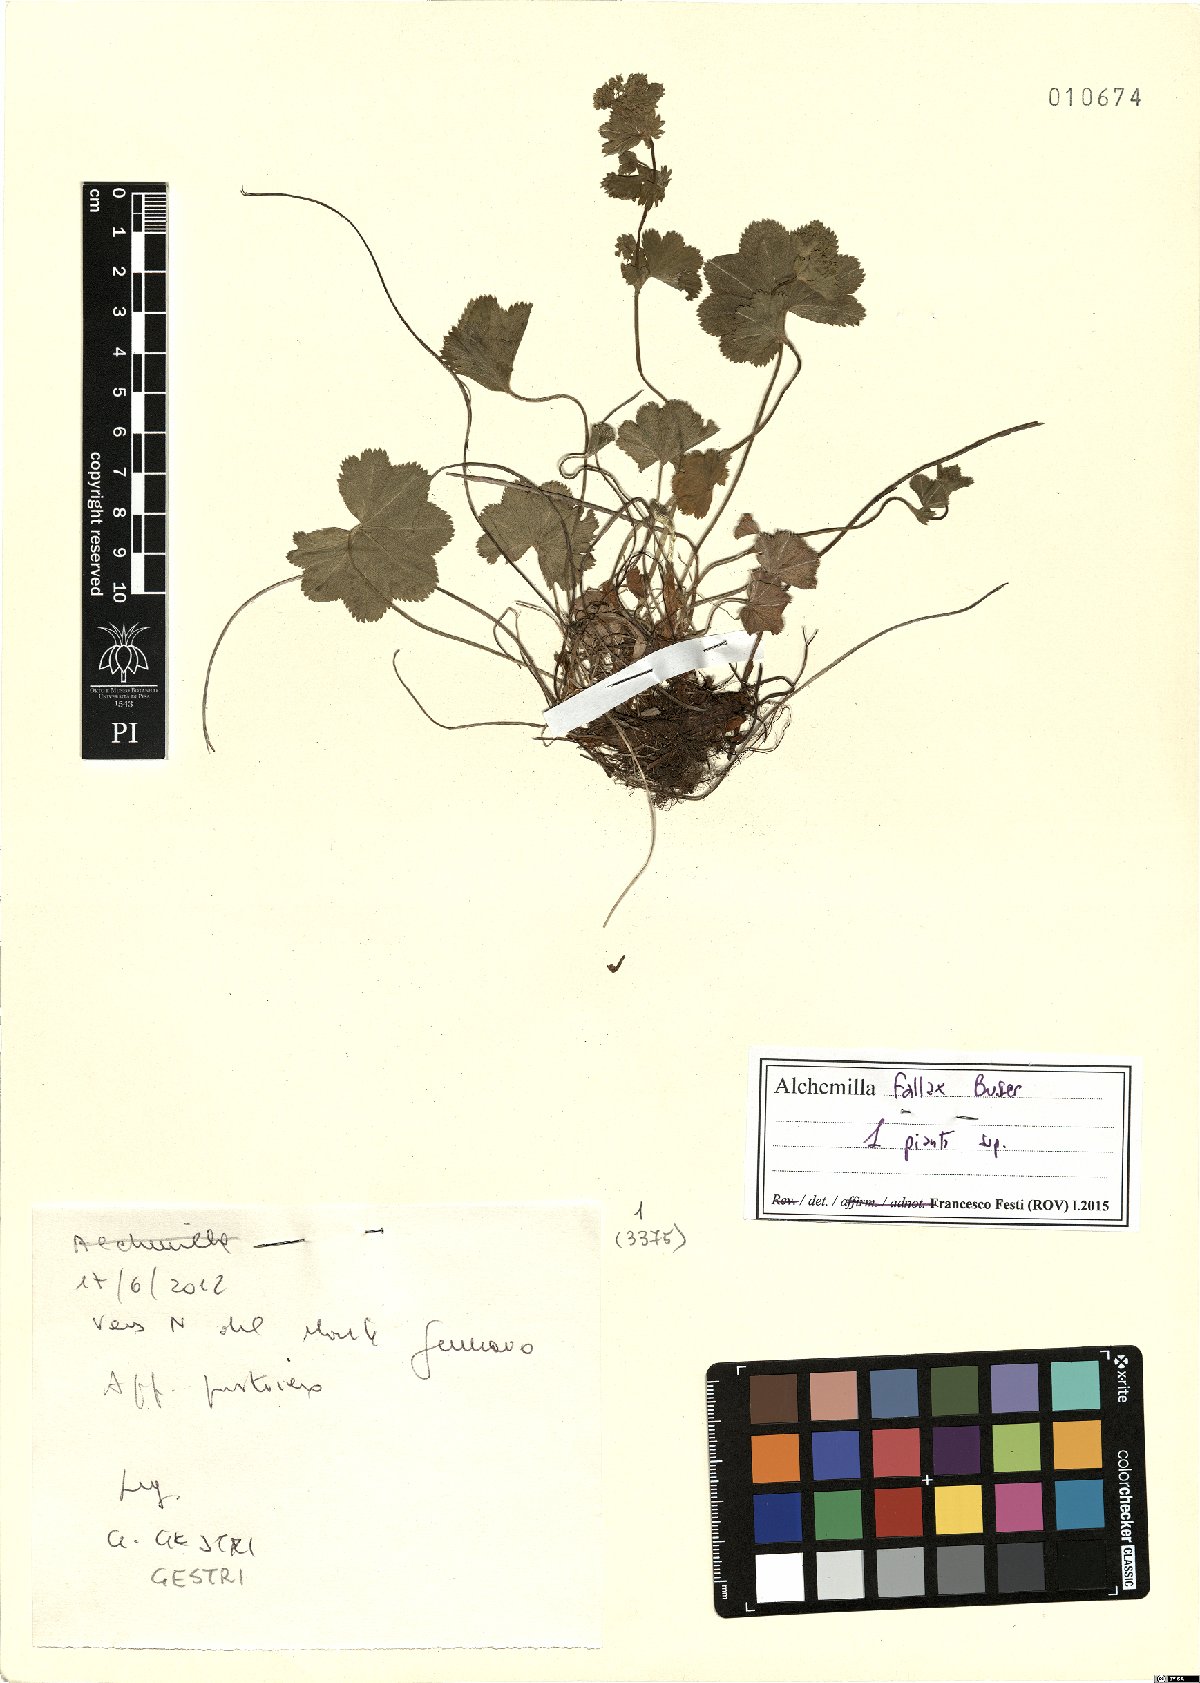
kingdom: Plantae
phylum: Tracheophyta
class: Magnoliopsida
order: Rosales
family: Rosaceae
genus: Alchemilla
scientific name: Alchemilla fallax
